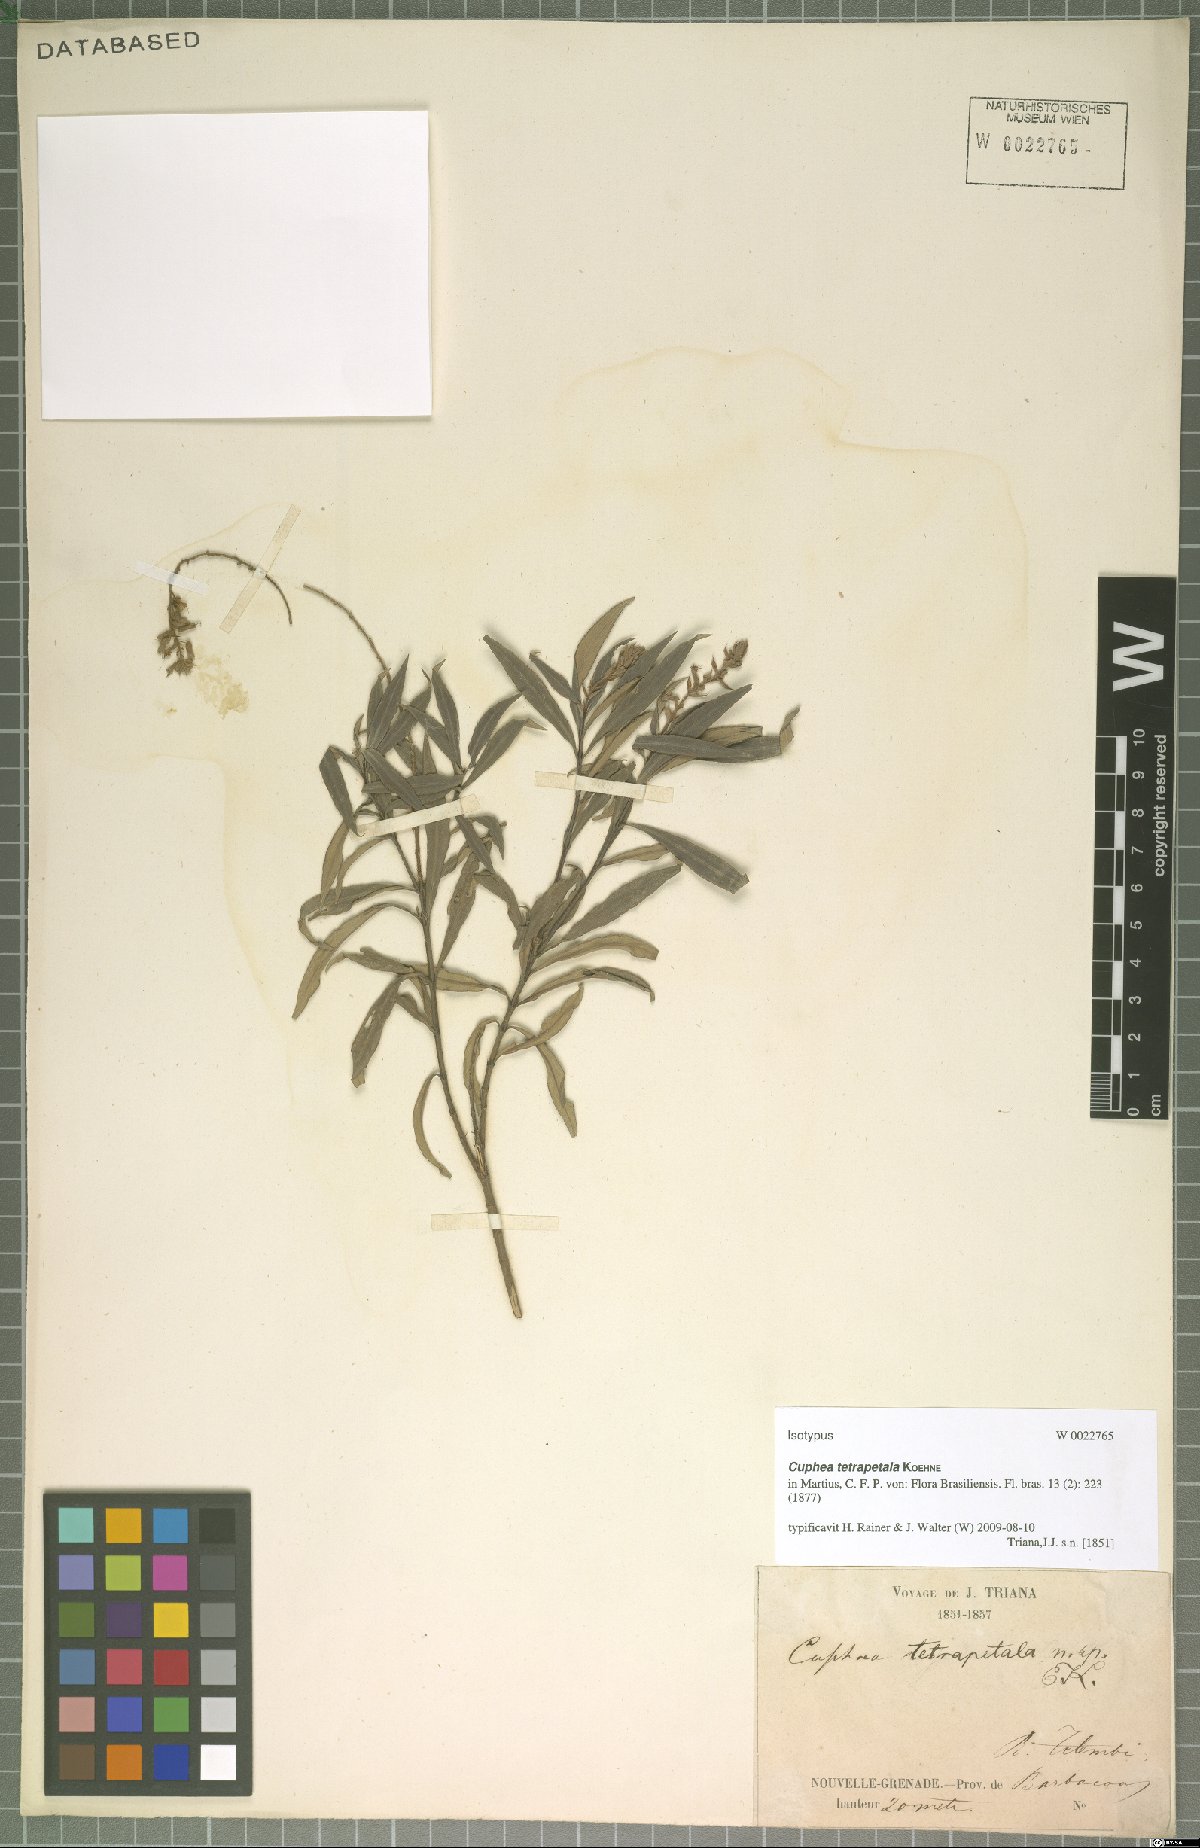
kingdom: Plantae
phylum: Tracheophyta
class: Magnoliopsida
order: Myrtales
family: Lythraceae
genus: Cuphea
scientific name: Cuphea tetrapetala
